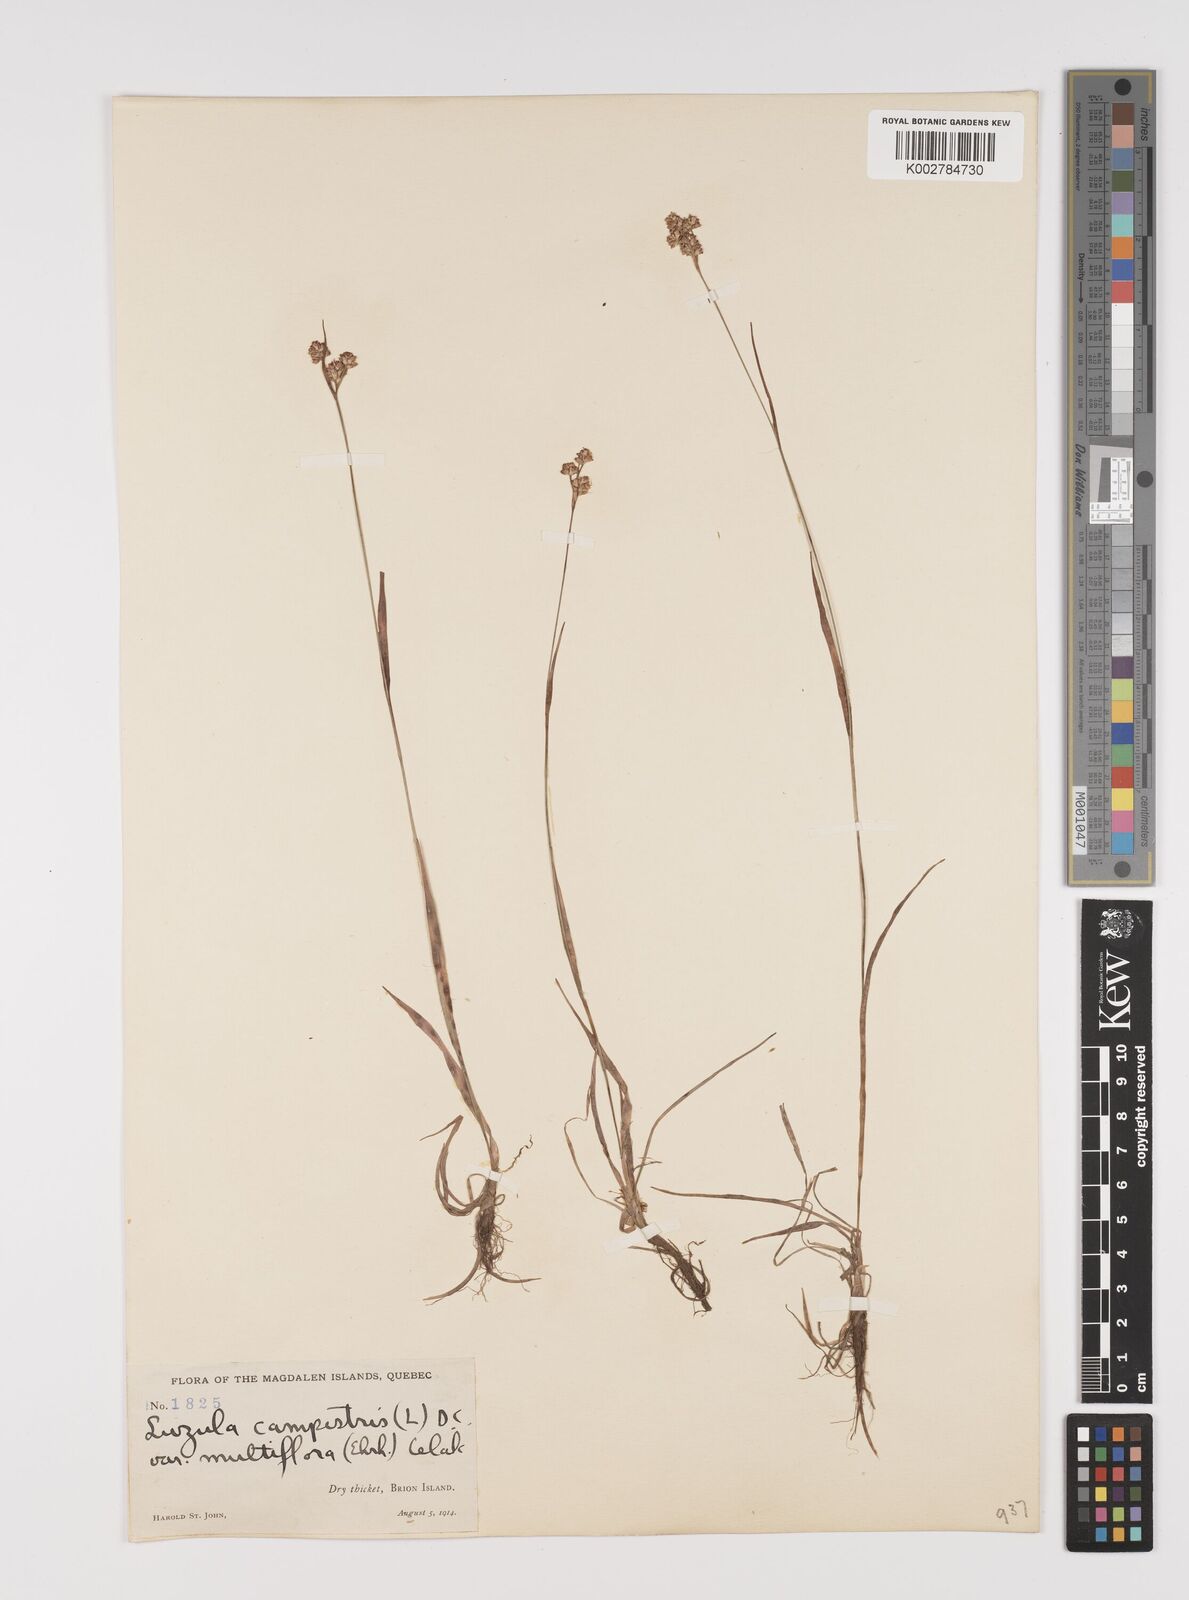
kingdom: Plantae
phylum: Tracheophyta
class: Liliopsida
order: Poales
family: Juncaceae
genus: Luzula
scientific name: Luzula campestris
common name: Field wood-rush
